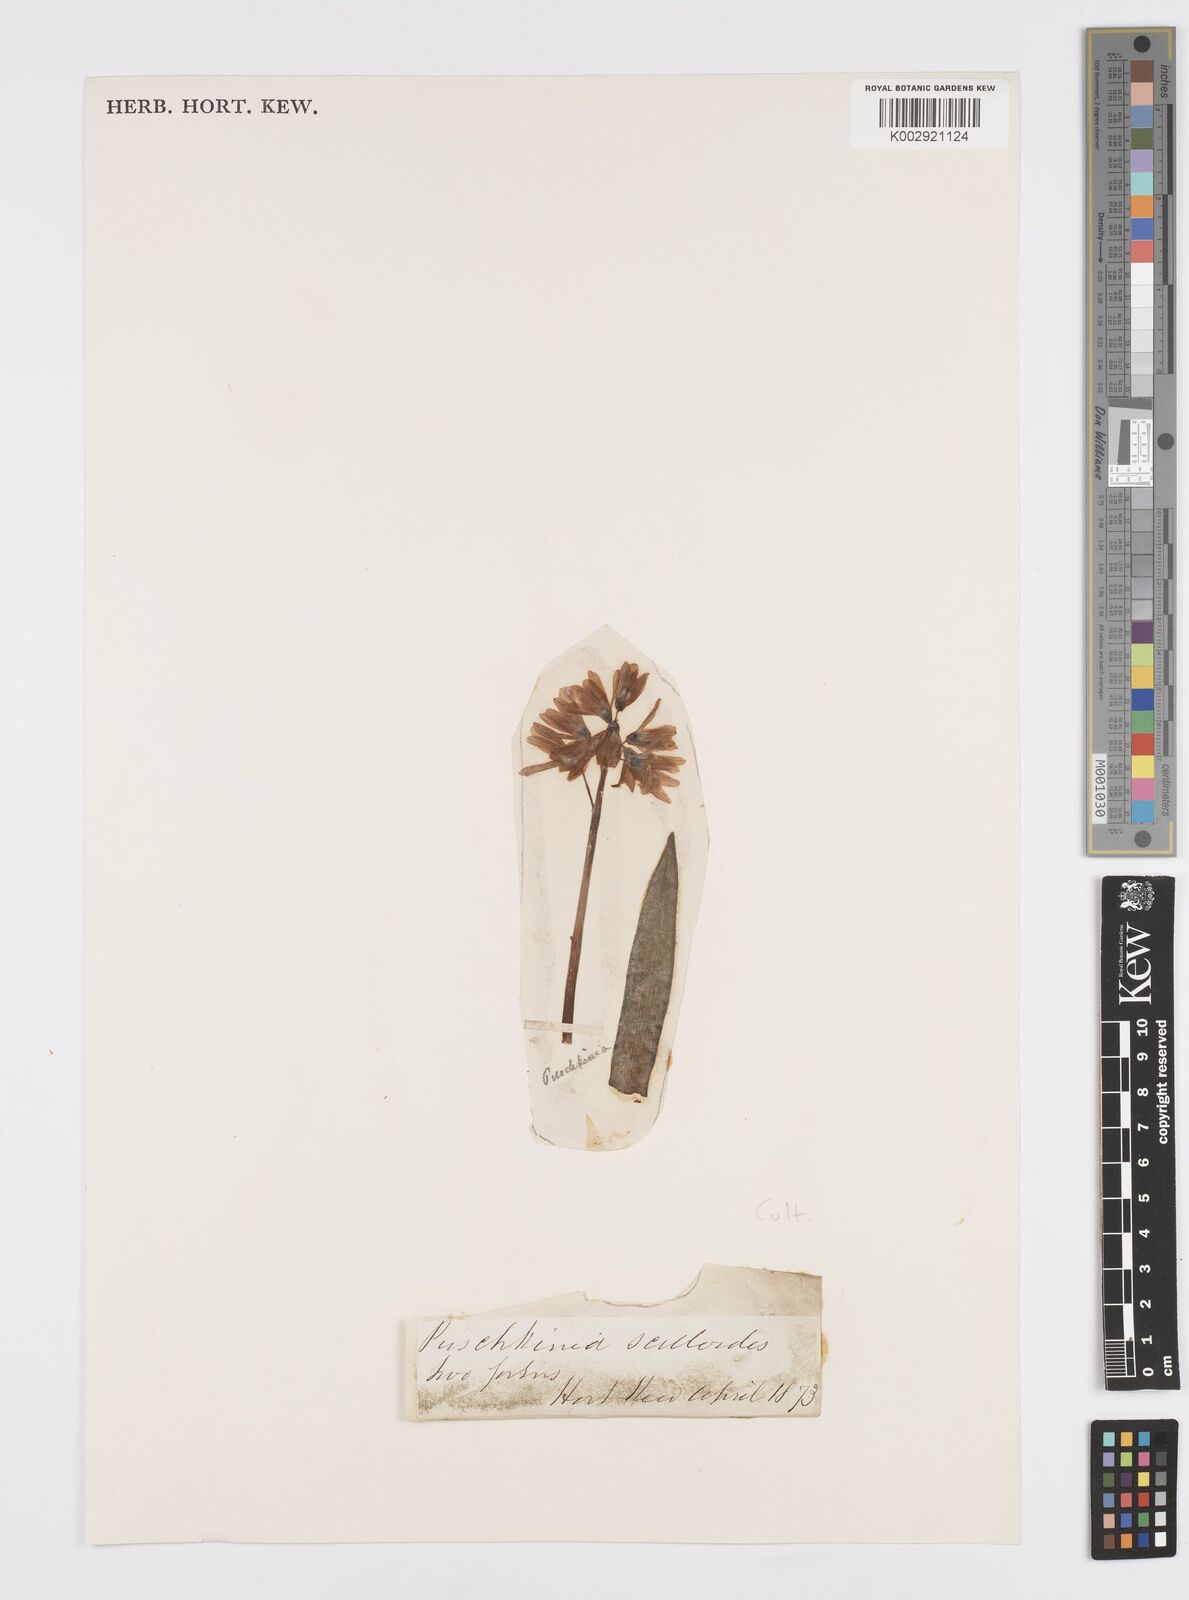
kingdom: Plantae
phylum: Tracheophyta
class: Liliopsida
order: Asparagales
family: Asparagaceae
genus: Puschkinia
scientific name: Puschkinia scilloides
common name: Striped squill
